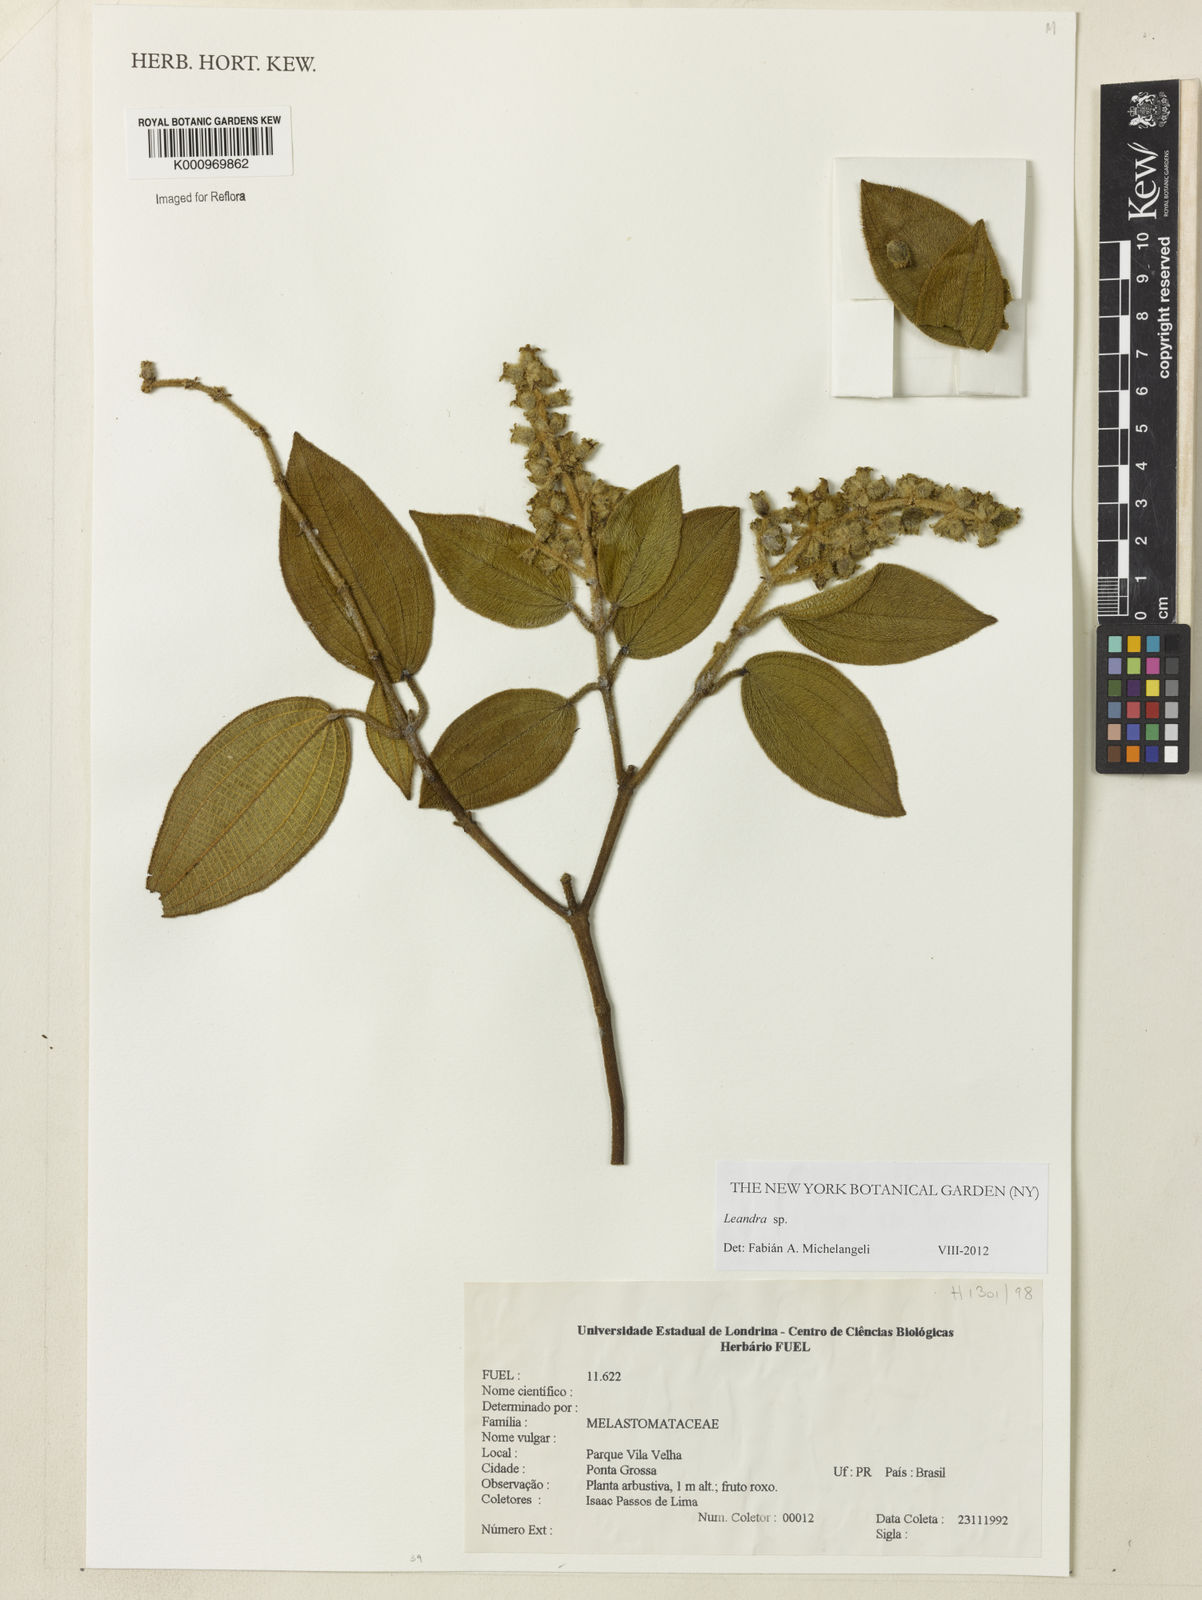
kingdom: Plantae
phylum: Tracheophyta
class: Magnoliopsida
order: Myrtales
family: Melastomataceae
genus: Miconia
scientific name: Miconia
